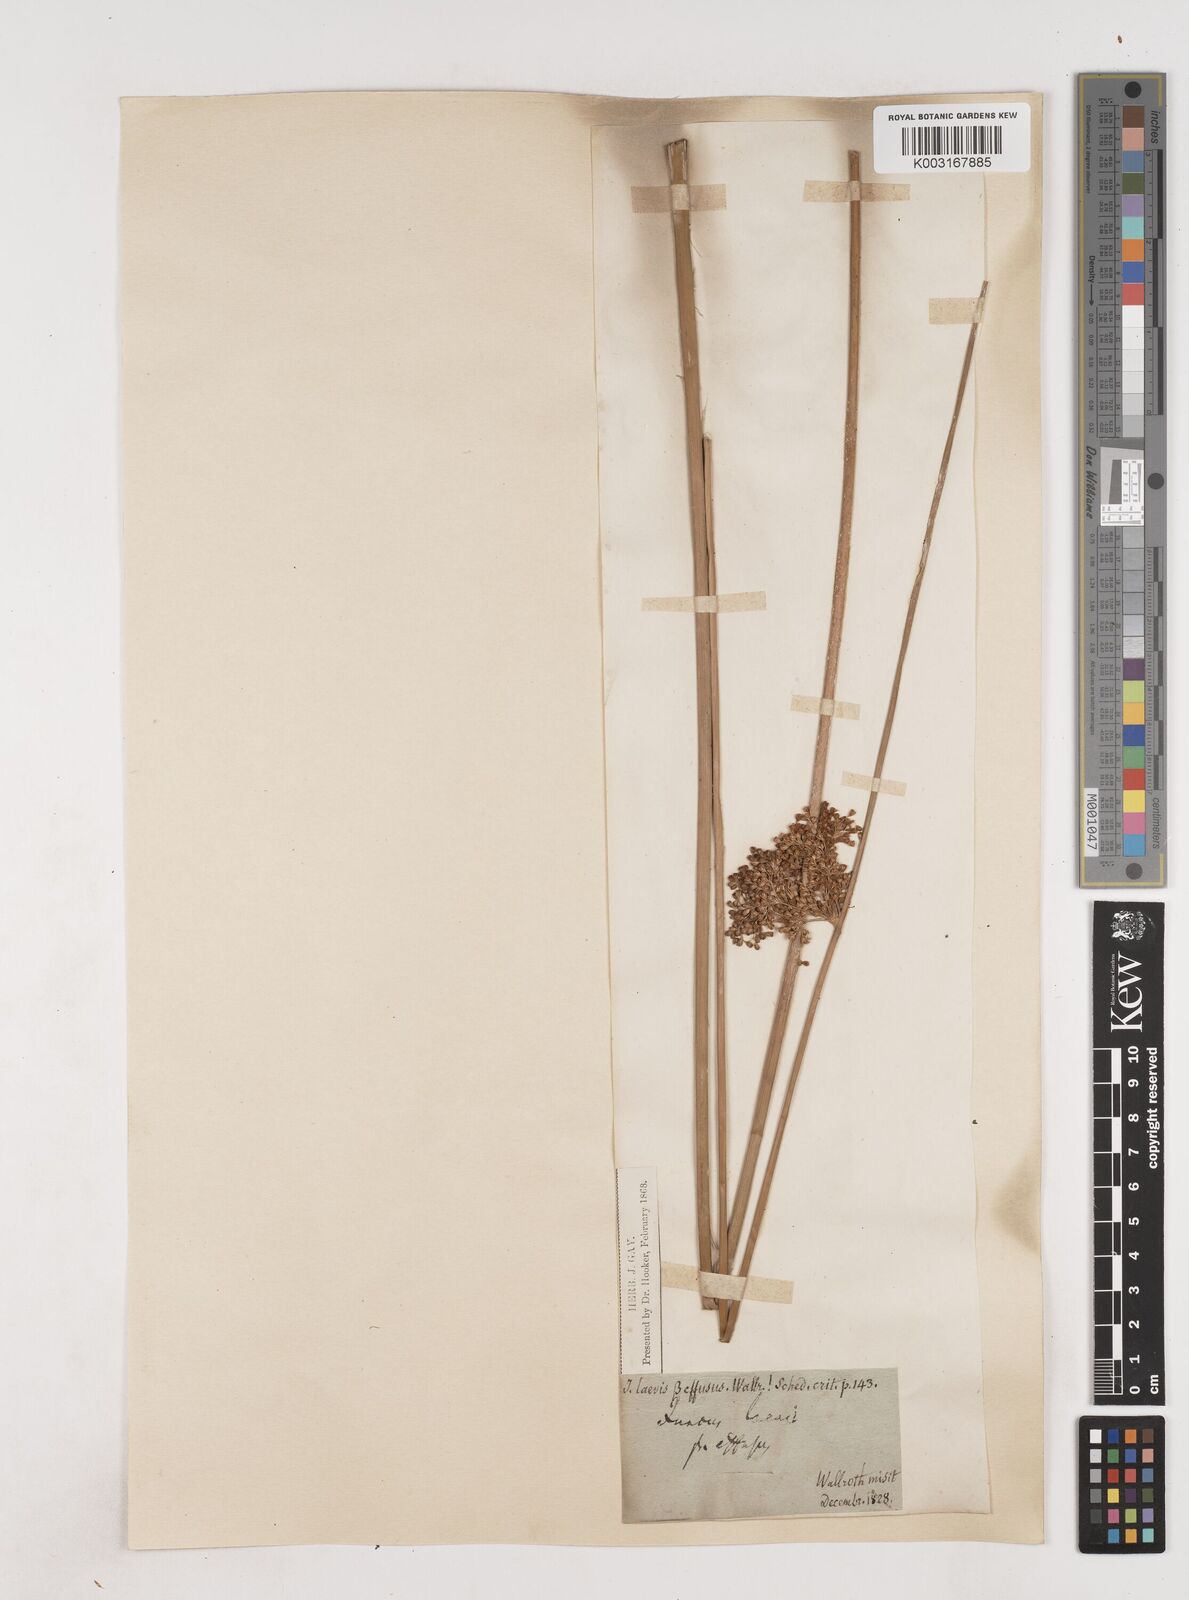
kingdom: Plantae
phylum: Tracheophyta
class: Liliopsida
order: Poales
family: Juncaceae
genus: Juncus
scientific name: Juncus effusus
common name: Soft rush
